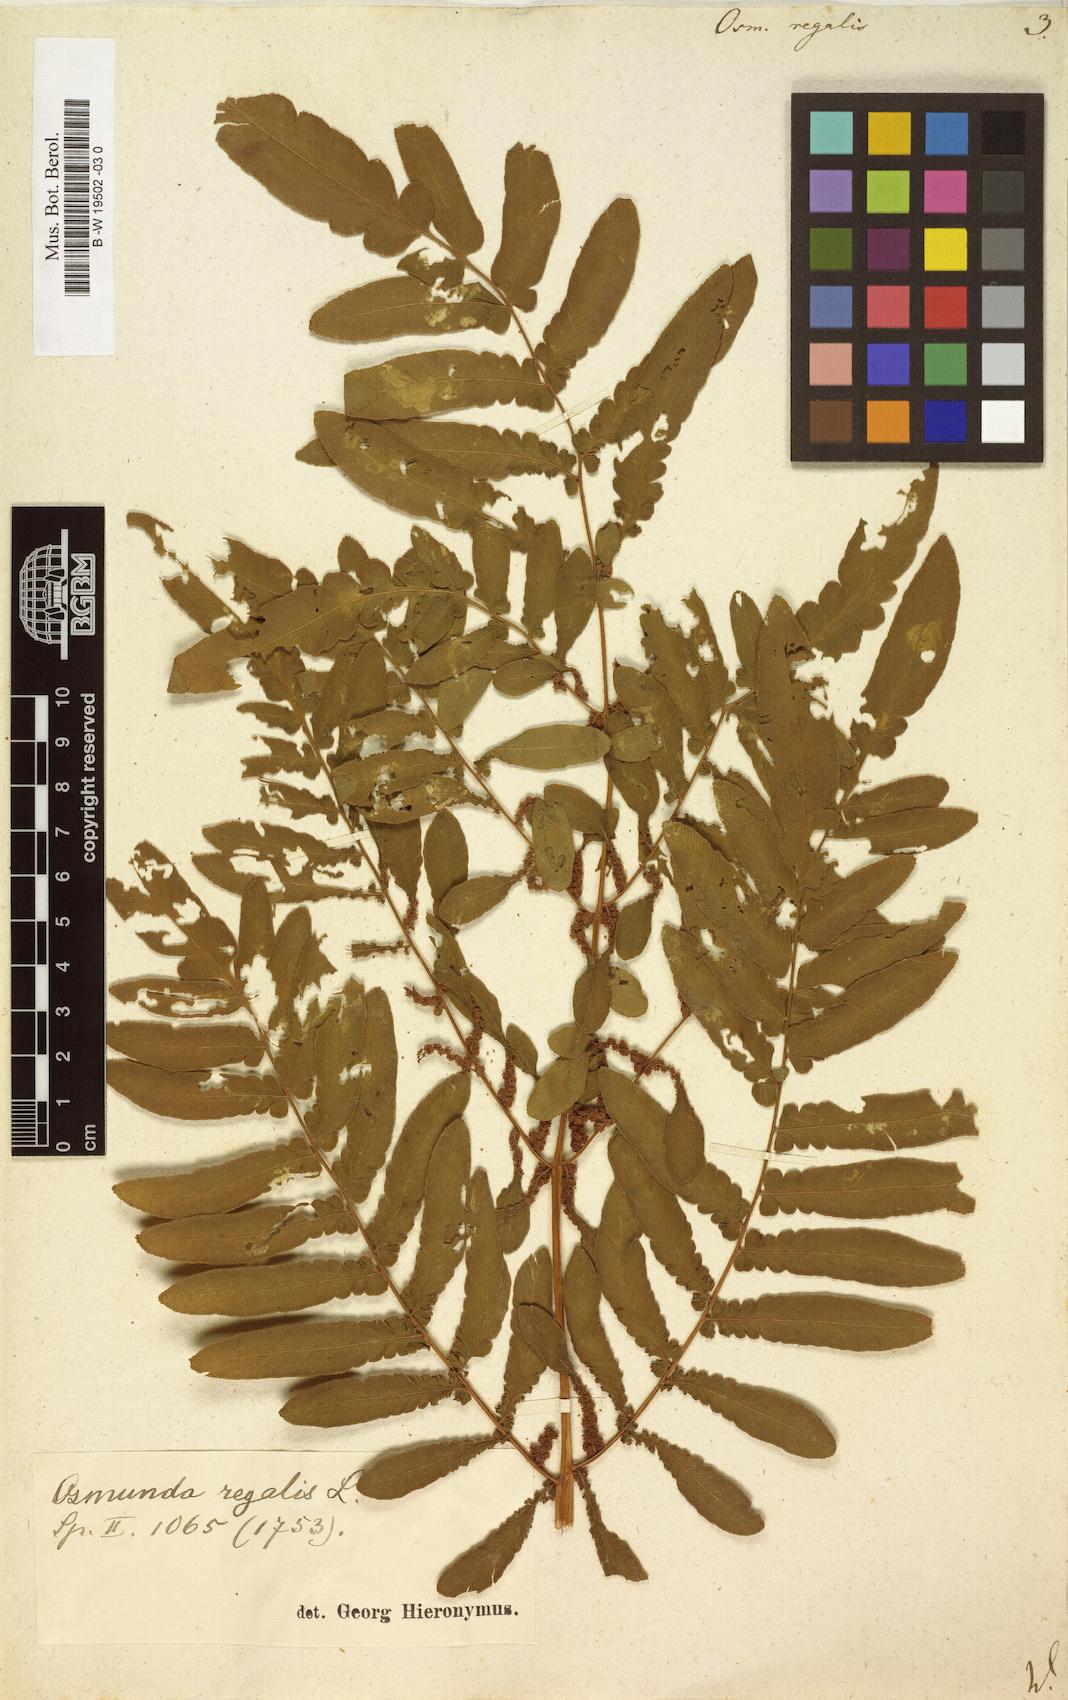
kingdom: Plantae
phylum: Tracheophyta
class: Polypodiopsida
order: Osmundales
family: Osmundaceae
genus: Osmunda
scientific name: Osmunda regalis
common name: Royal fern
